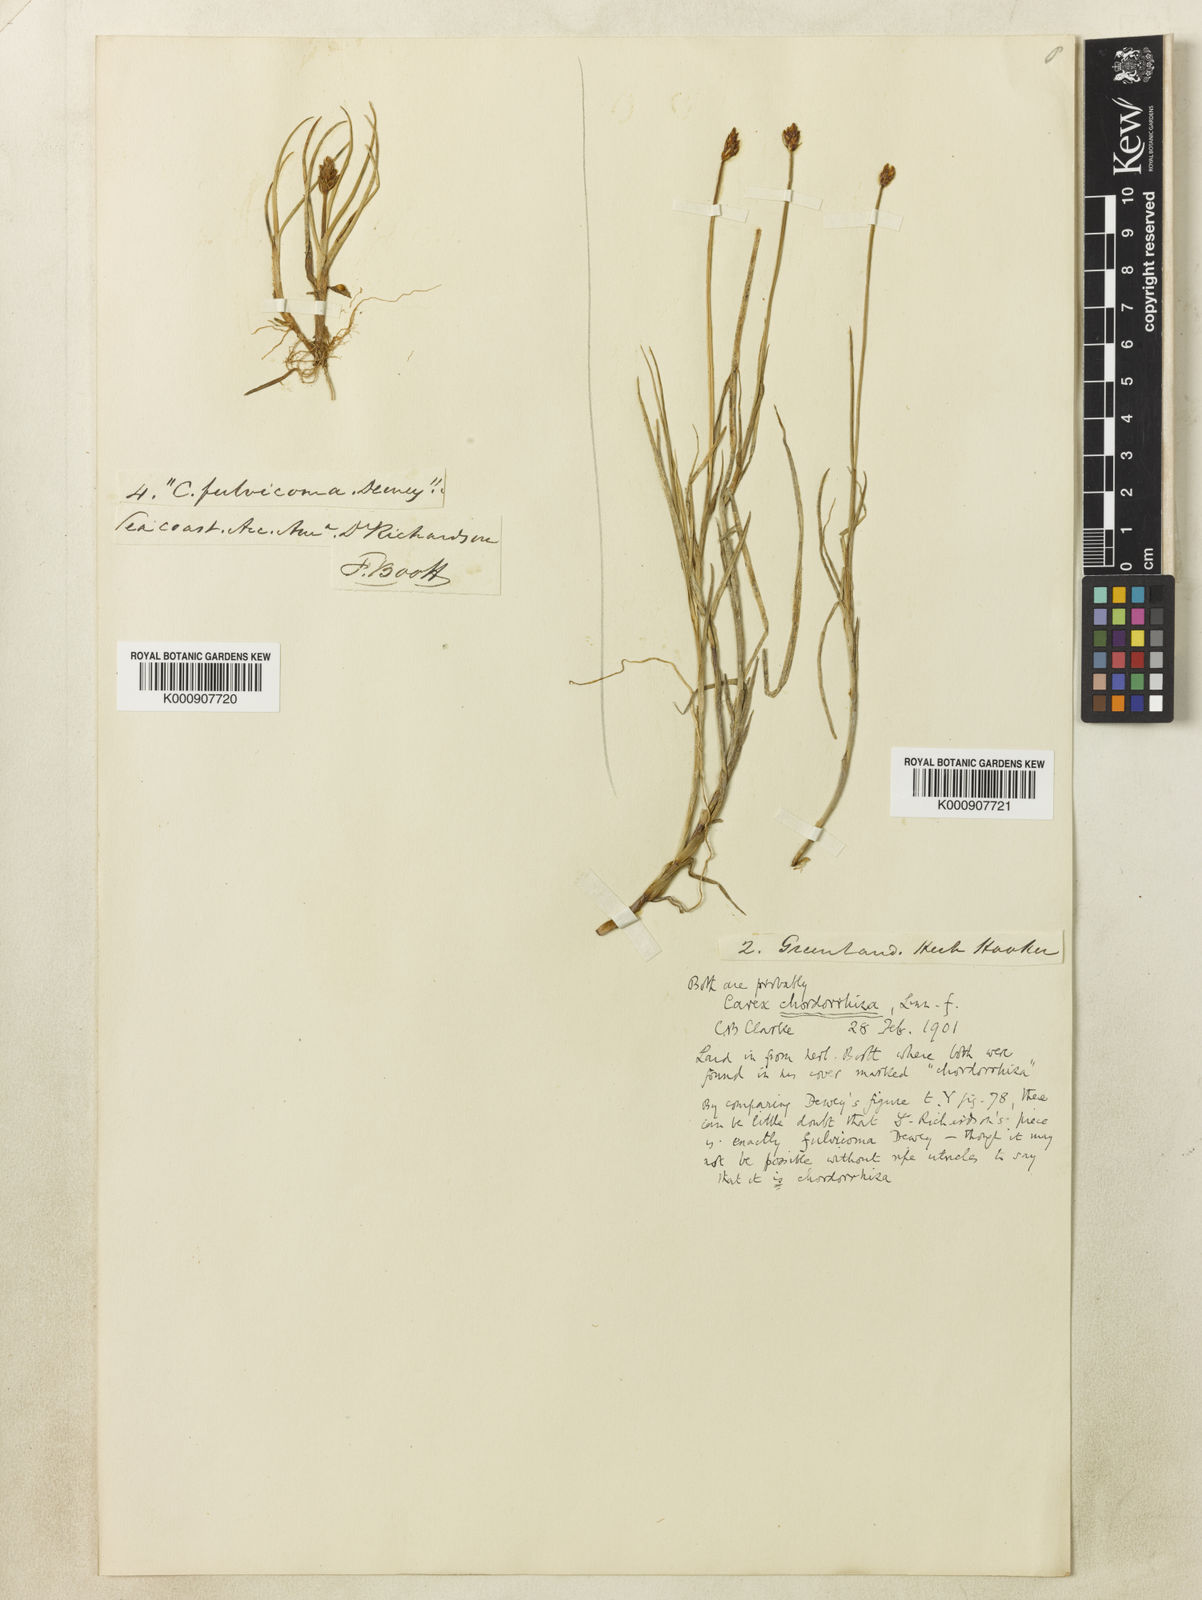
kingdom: Plantae
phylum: Tracheophyta
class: Liliopsida
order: Poales
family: Cyperaceae
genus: Carex
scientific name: Carex chordorrhiza
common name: String sedge
